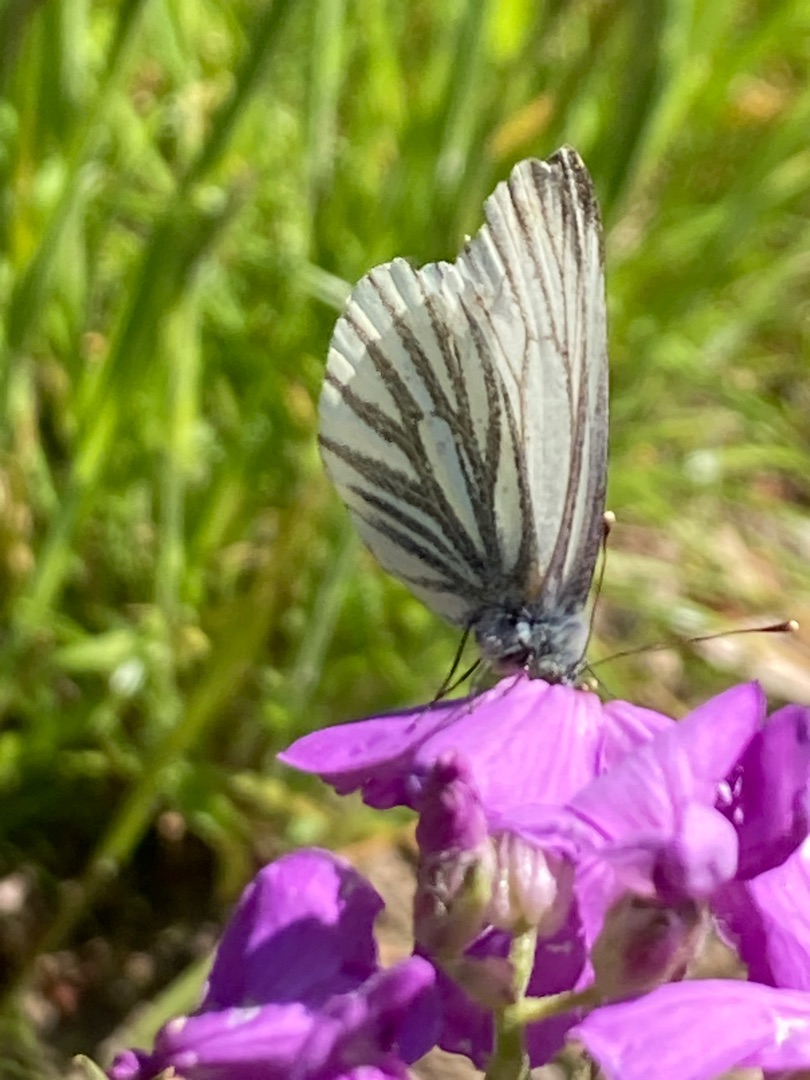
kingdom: Animalia
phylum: Arthropoda
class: Insecta
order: Lepidoptera
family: Pieridae
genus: Pieris
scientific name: Pieris napi
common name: Grønåret kålsommerfugl
